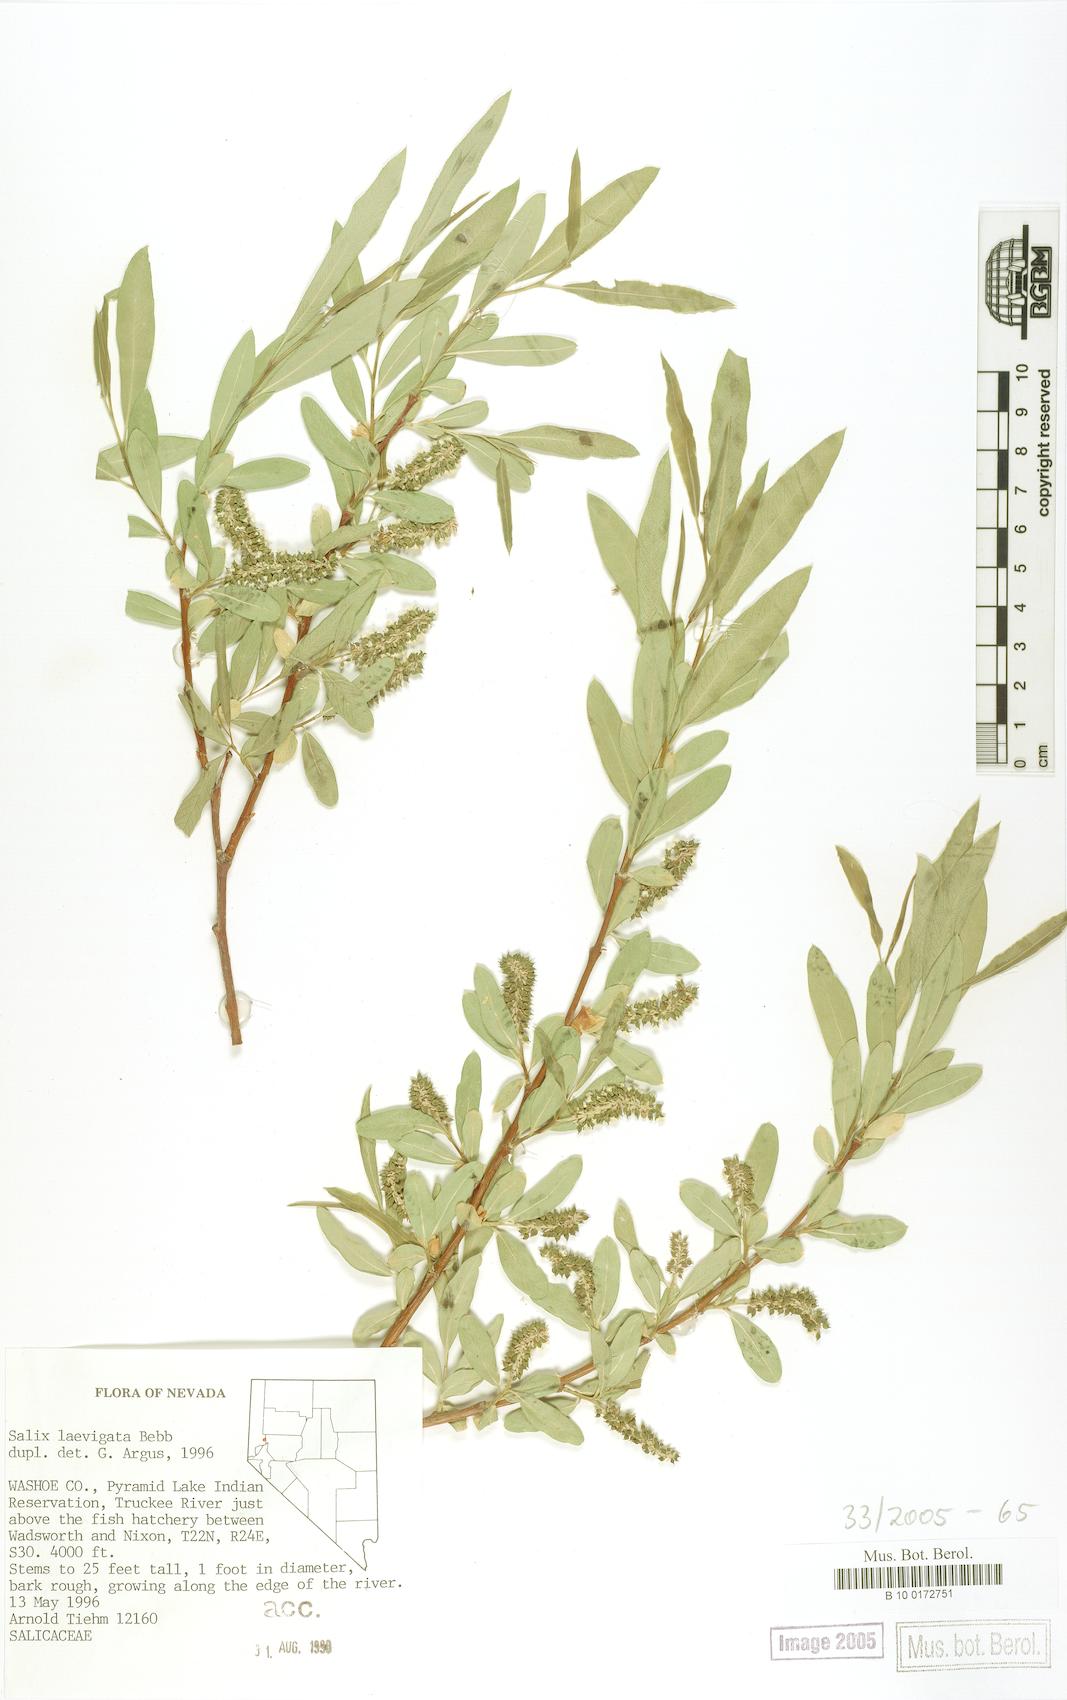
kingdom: Plantae
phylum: Tracheophyta
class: Magnoliopsida
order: Malpighiales
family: Salicaceae
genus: Salix
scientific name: Salix laevigata
